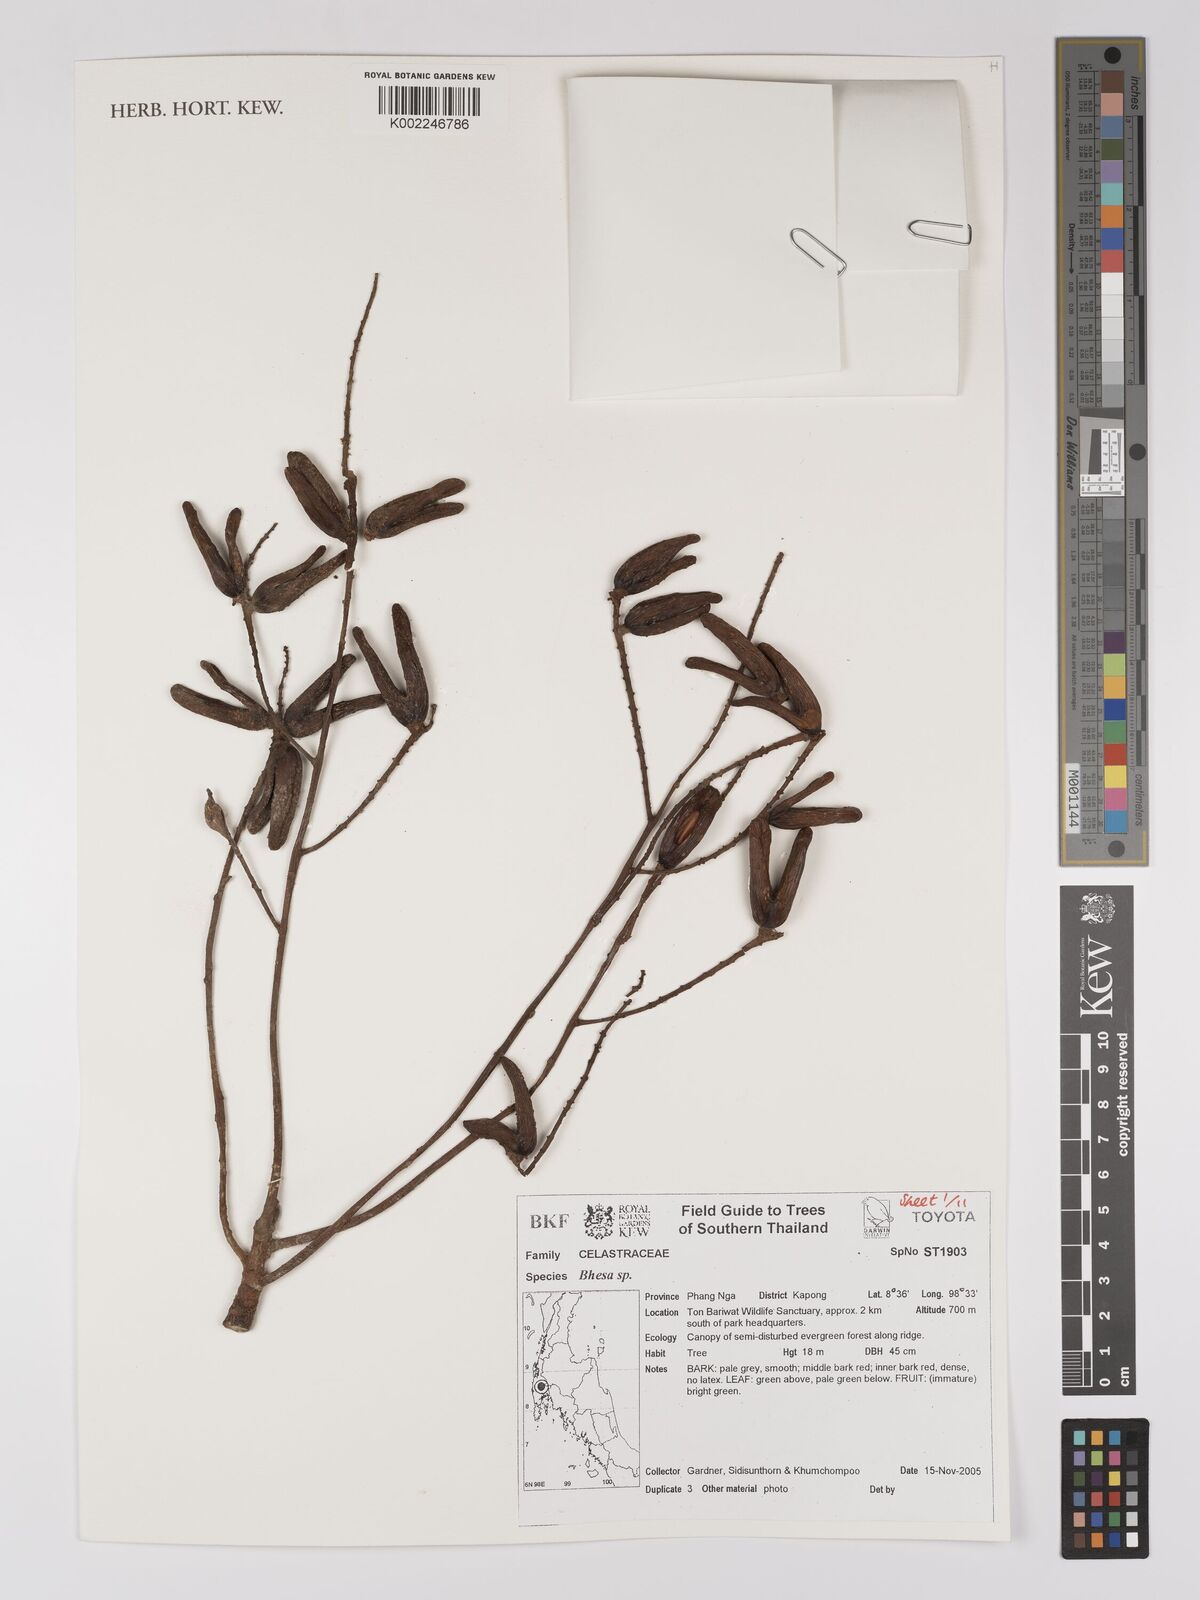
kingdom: Plantae
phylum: Tracheophyta
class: Magnoliopsida
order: Malpighiales
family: Centroplacaceae
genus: Bhesa
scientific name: Bhesa
